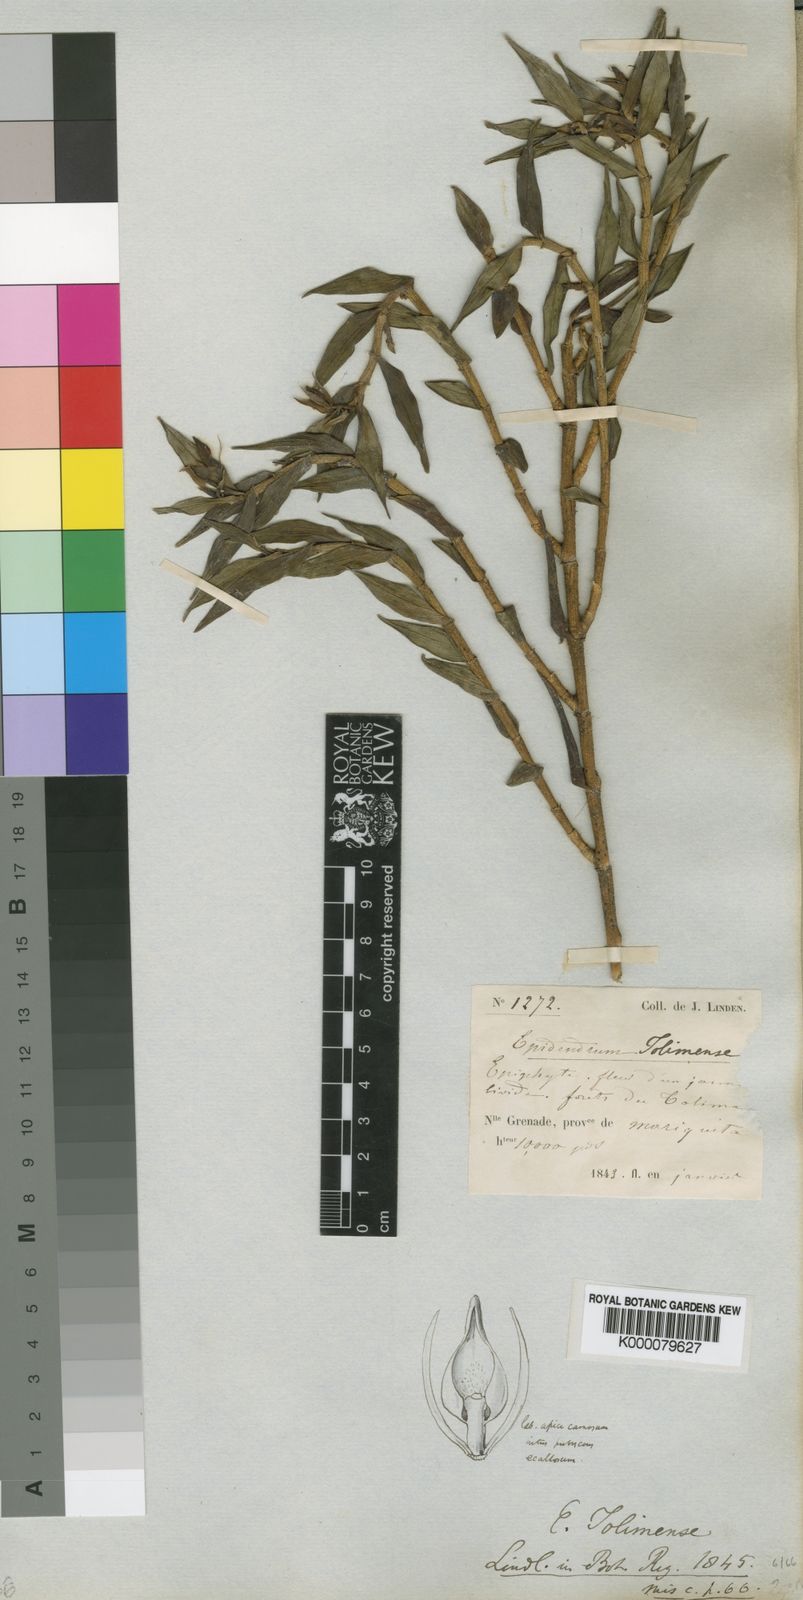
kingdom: Plantae
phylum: Tracheophyta
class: Liliopsida
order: Asparagales
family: Orchidaceae
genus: Epidendrum
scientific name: Epidendrum tolimense
